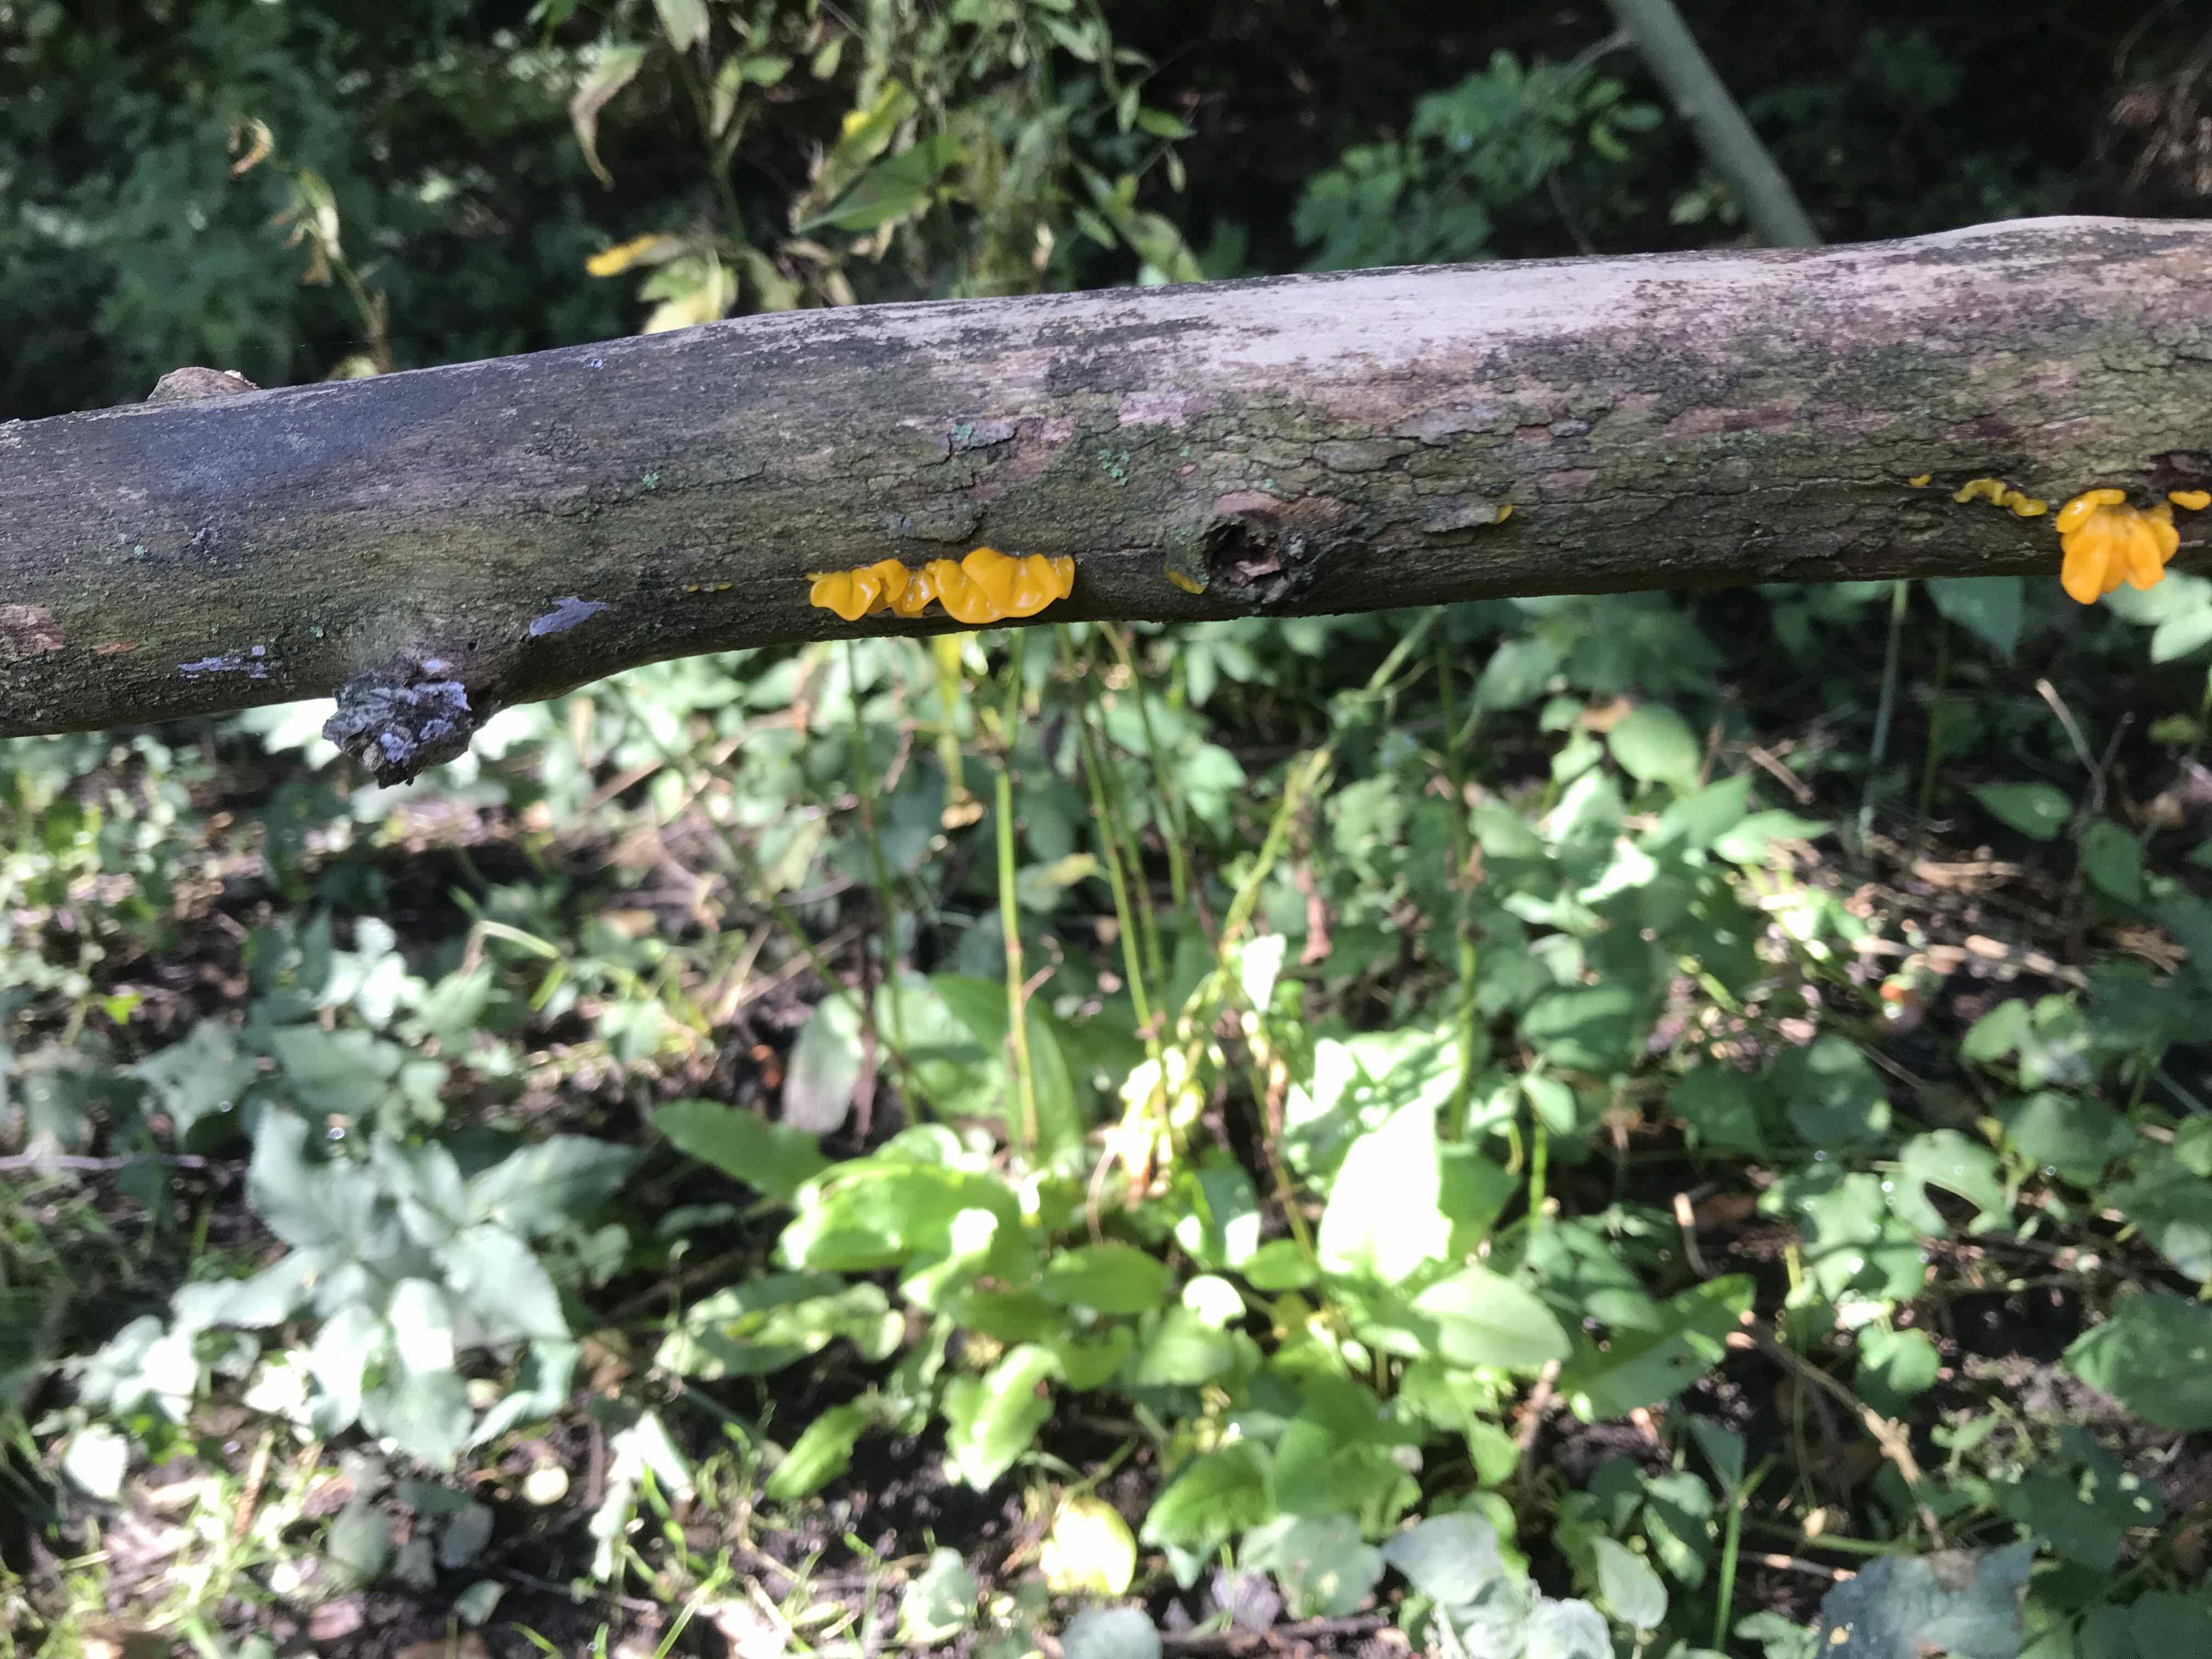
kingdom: Fungi
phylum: Basidiomycota
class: Tremellomycetes
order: Tremellales
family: Tremellaceae
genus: Tremella
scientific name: Tremella mesenterica
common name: gul bævresvamp
